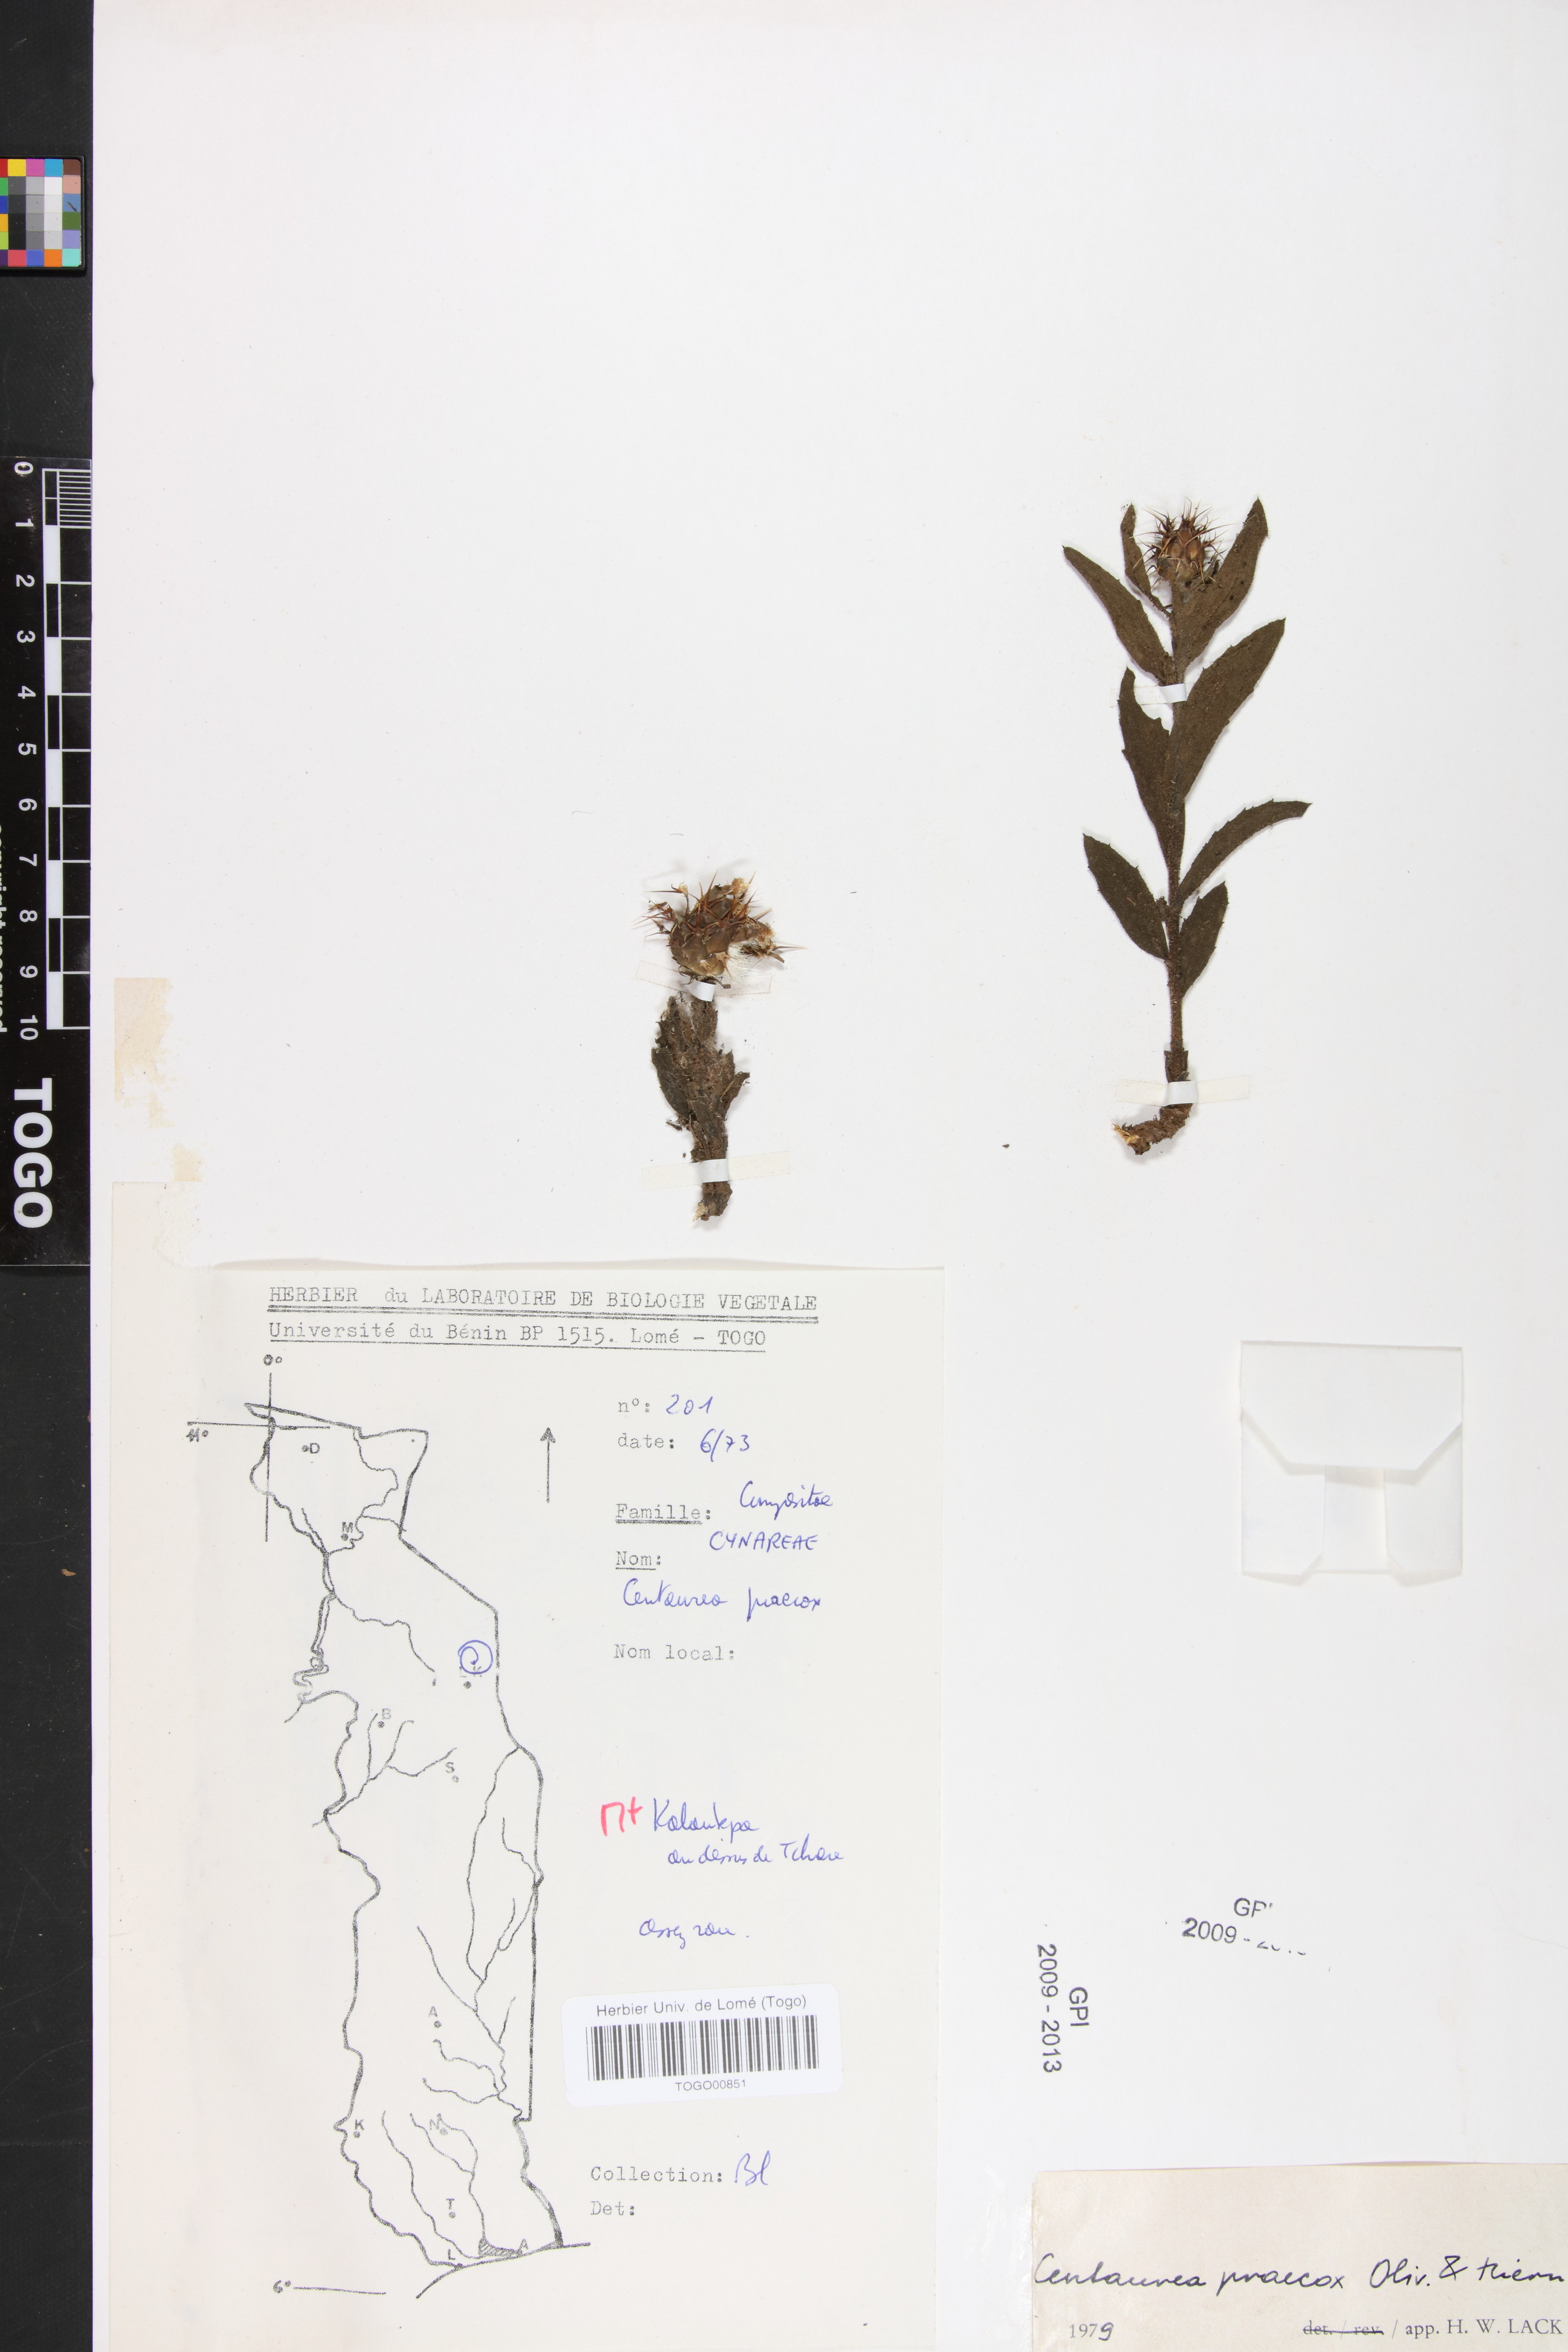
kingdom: Plantae
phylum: Tracheophyta
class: Magnoliopsida
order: Asterales
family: Asteraceae
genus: Centaurea
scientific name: Centaurea praecox
